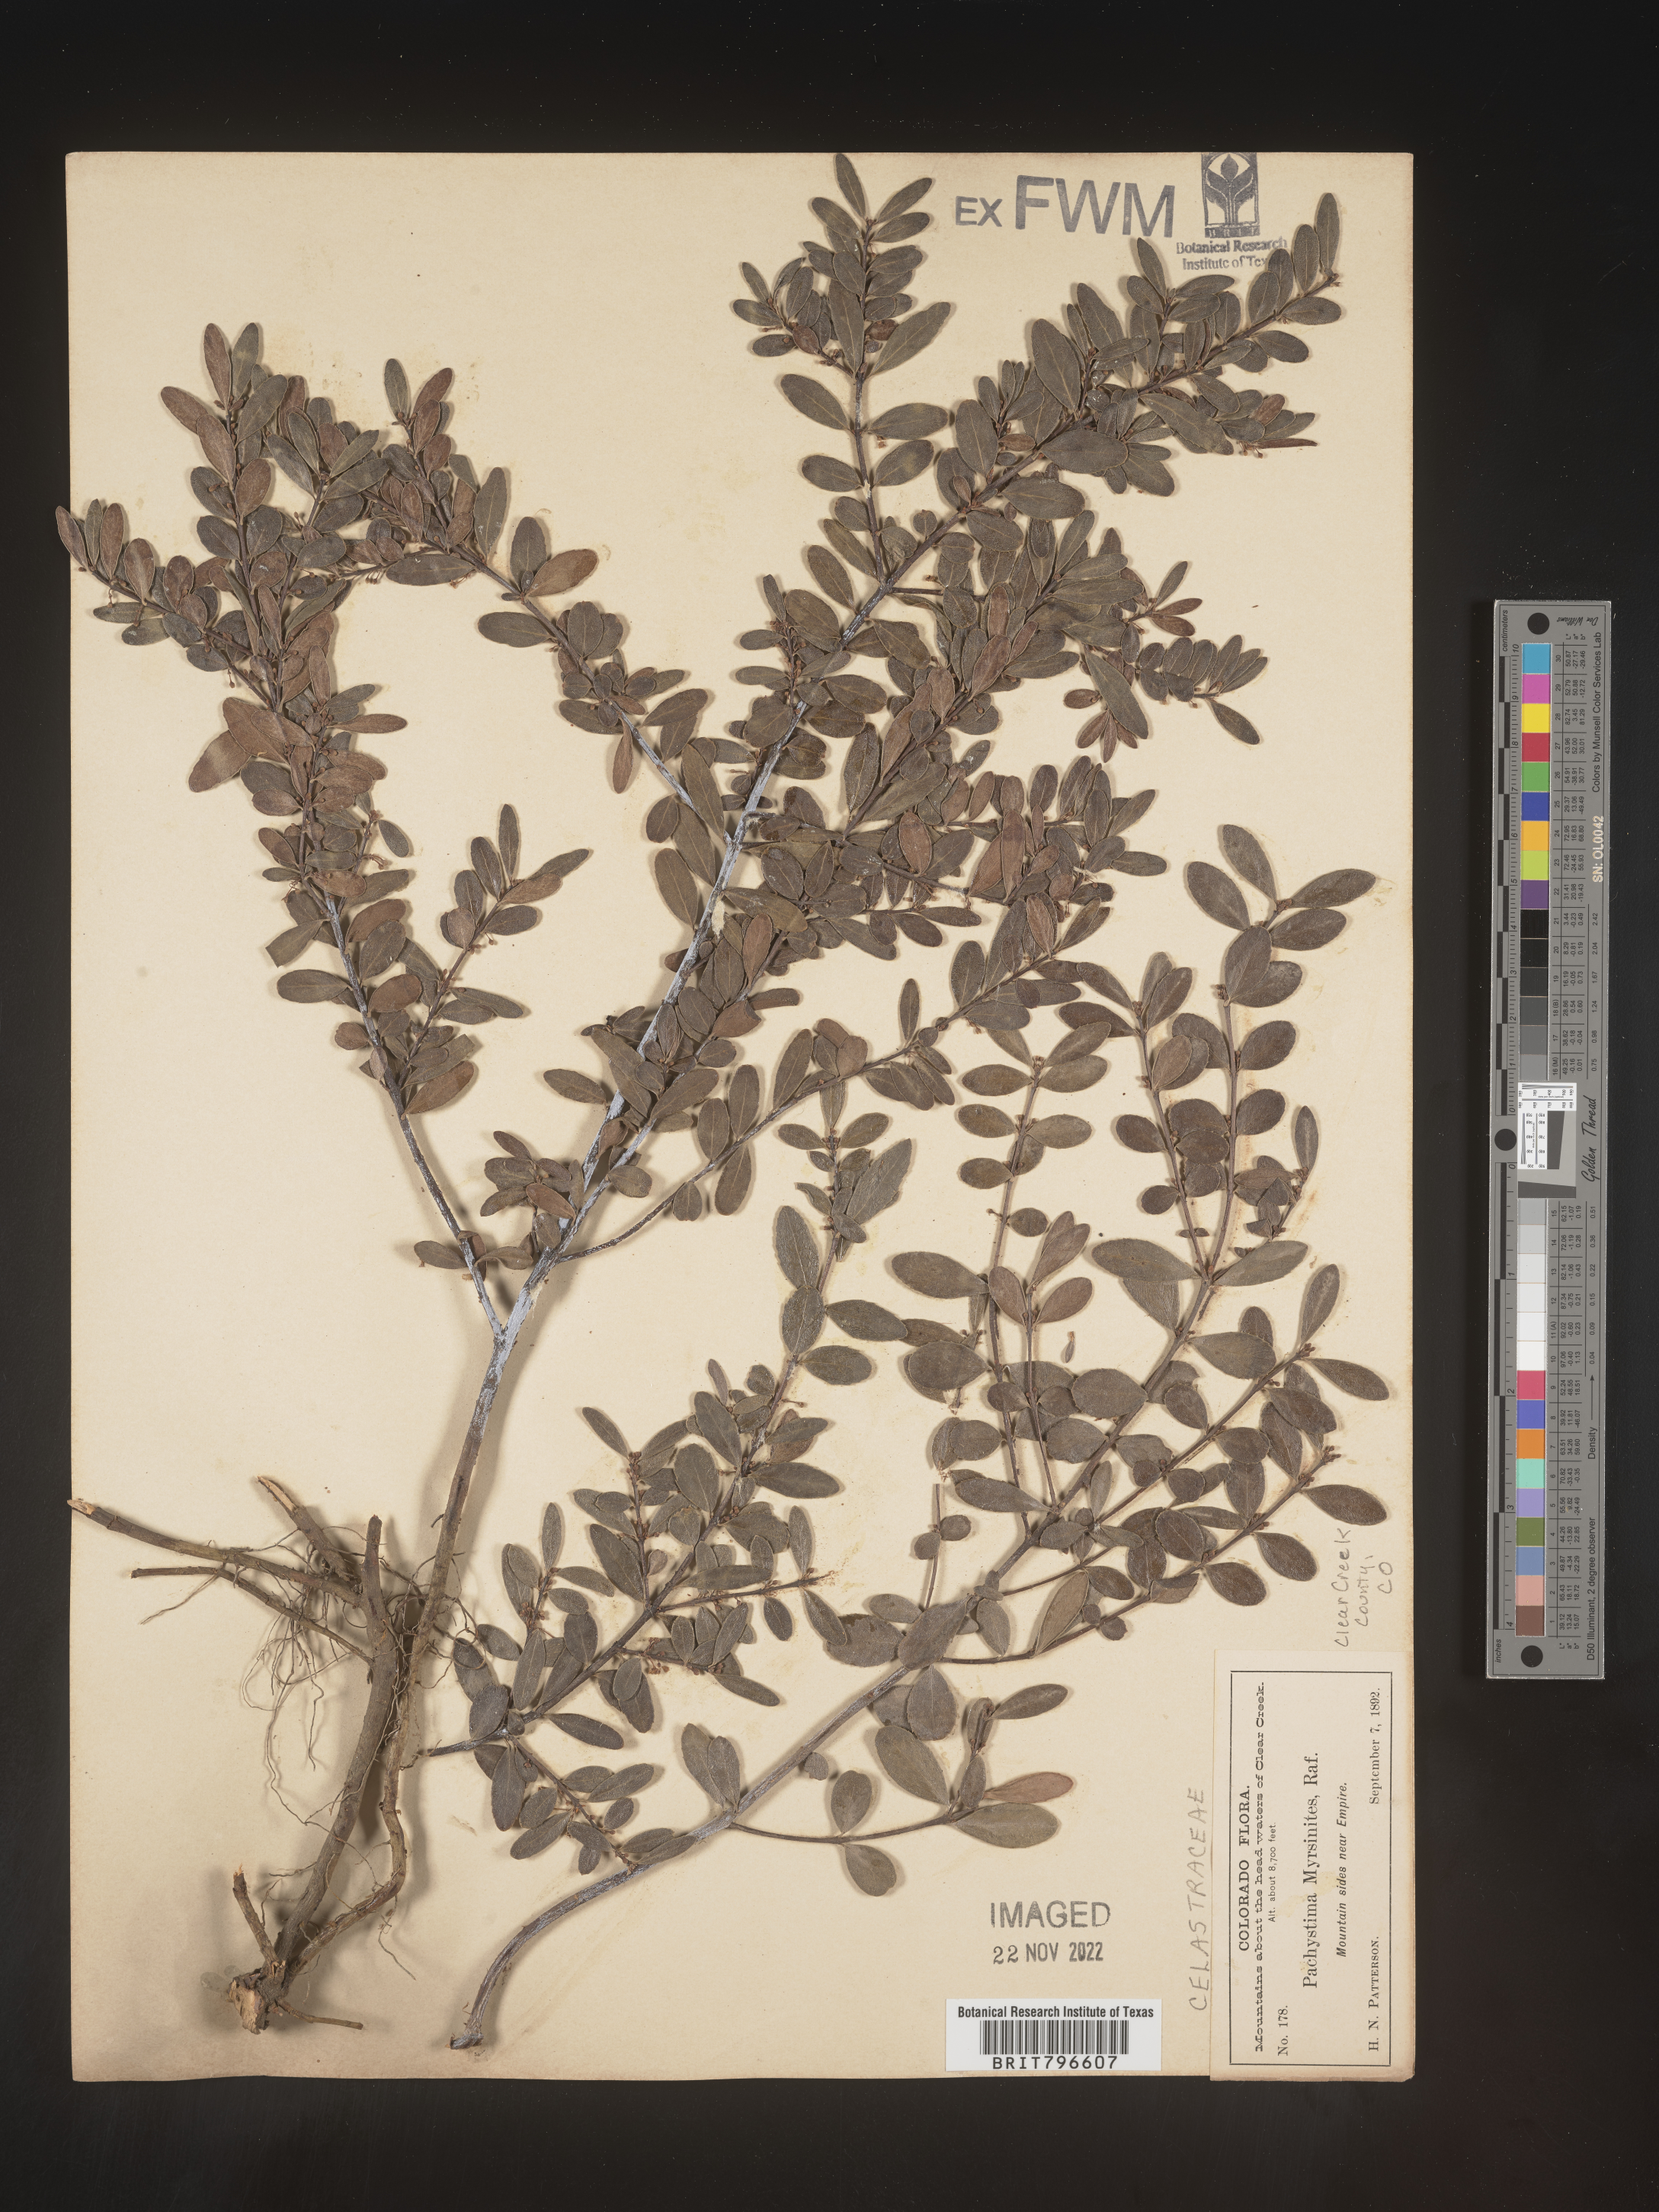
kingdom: Plantae
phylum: Tracheophyta
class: Magnoliopsida
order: Celastrales
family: Celastraceae
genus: Paxistima
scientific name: Paxistima myrsinites
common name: Mountain-lover
